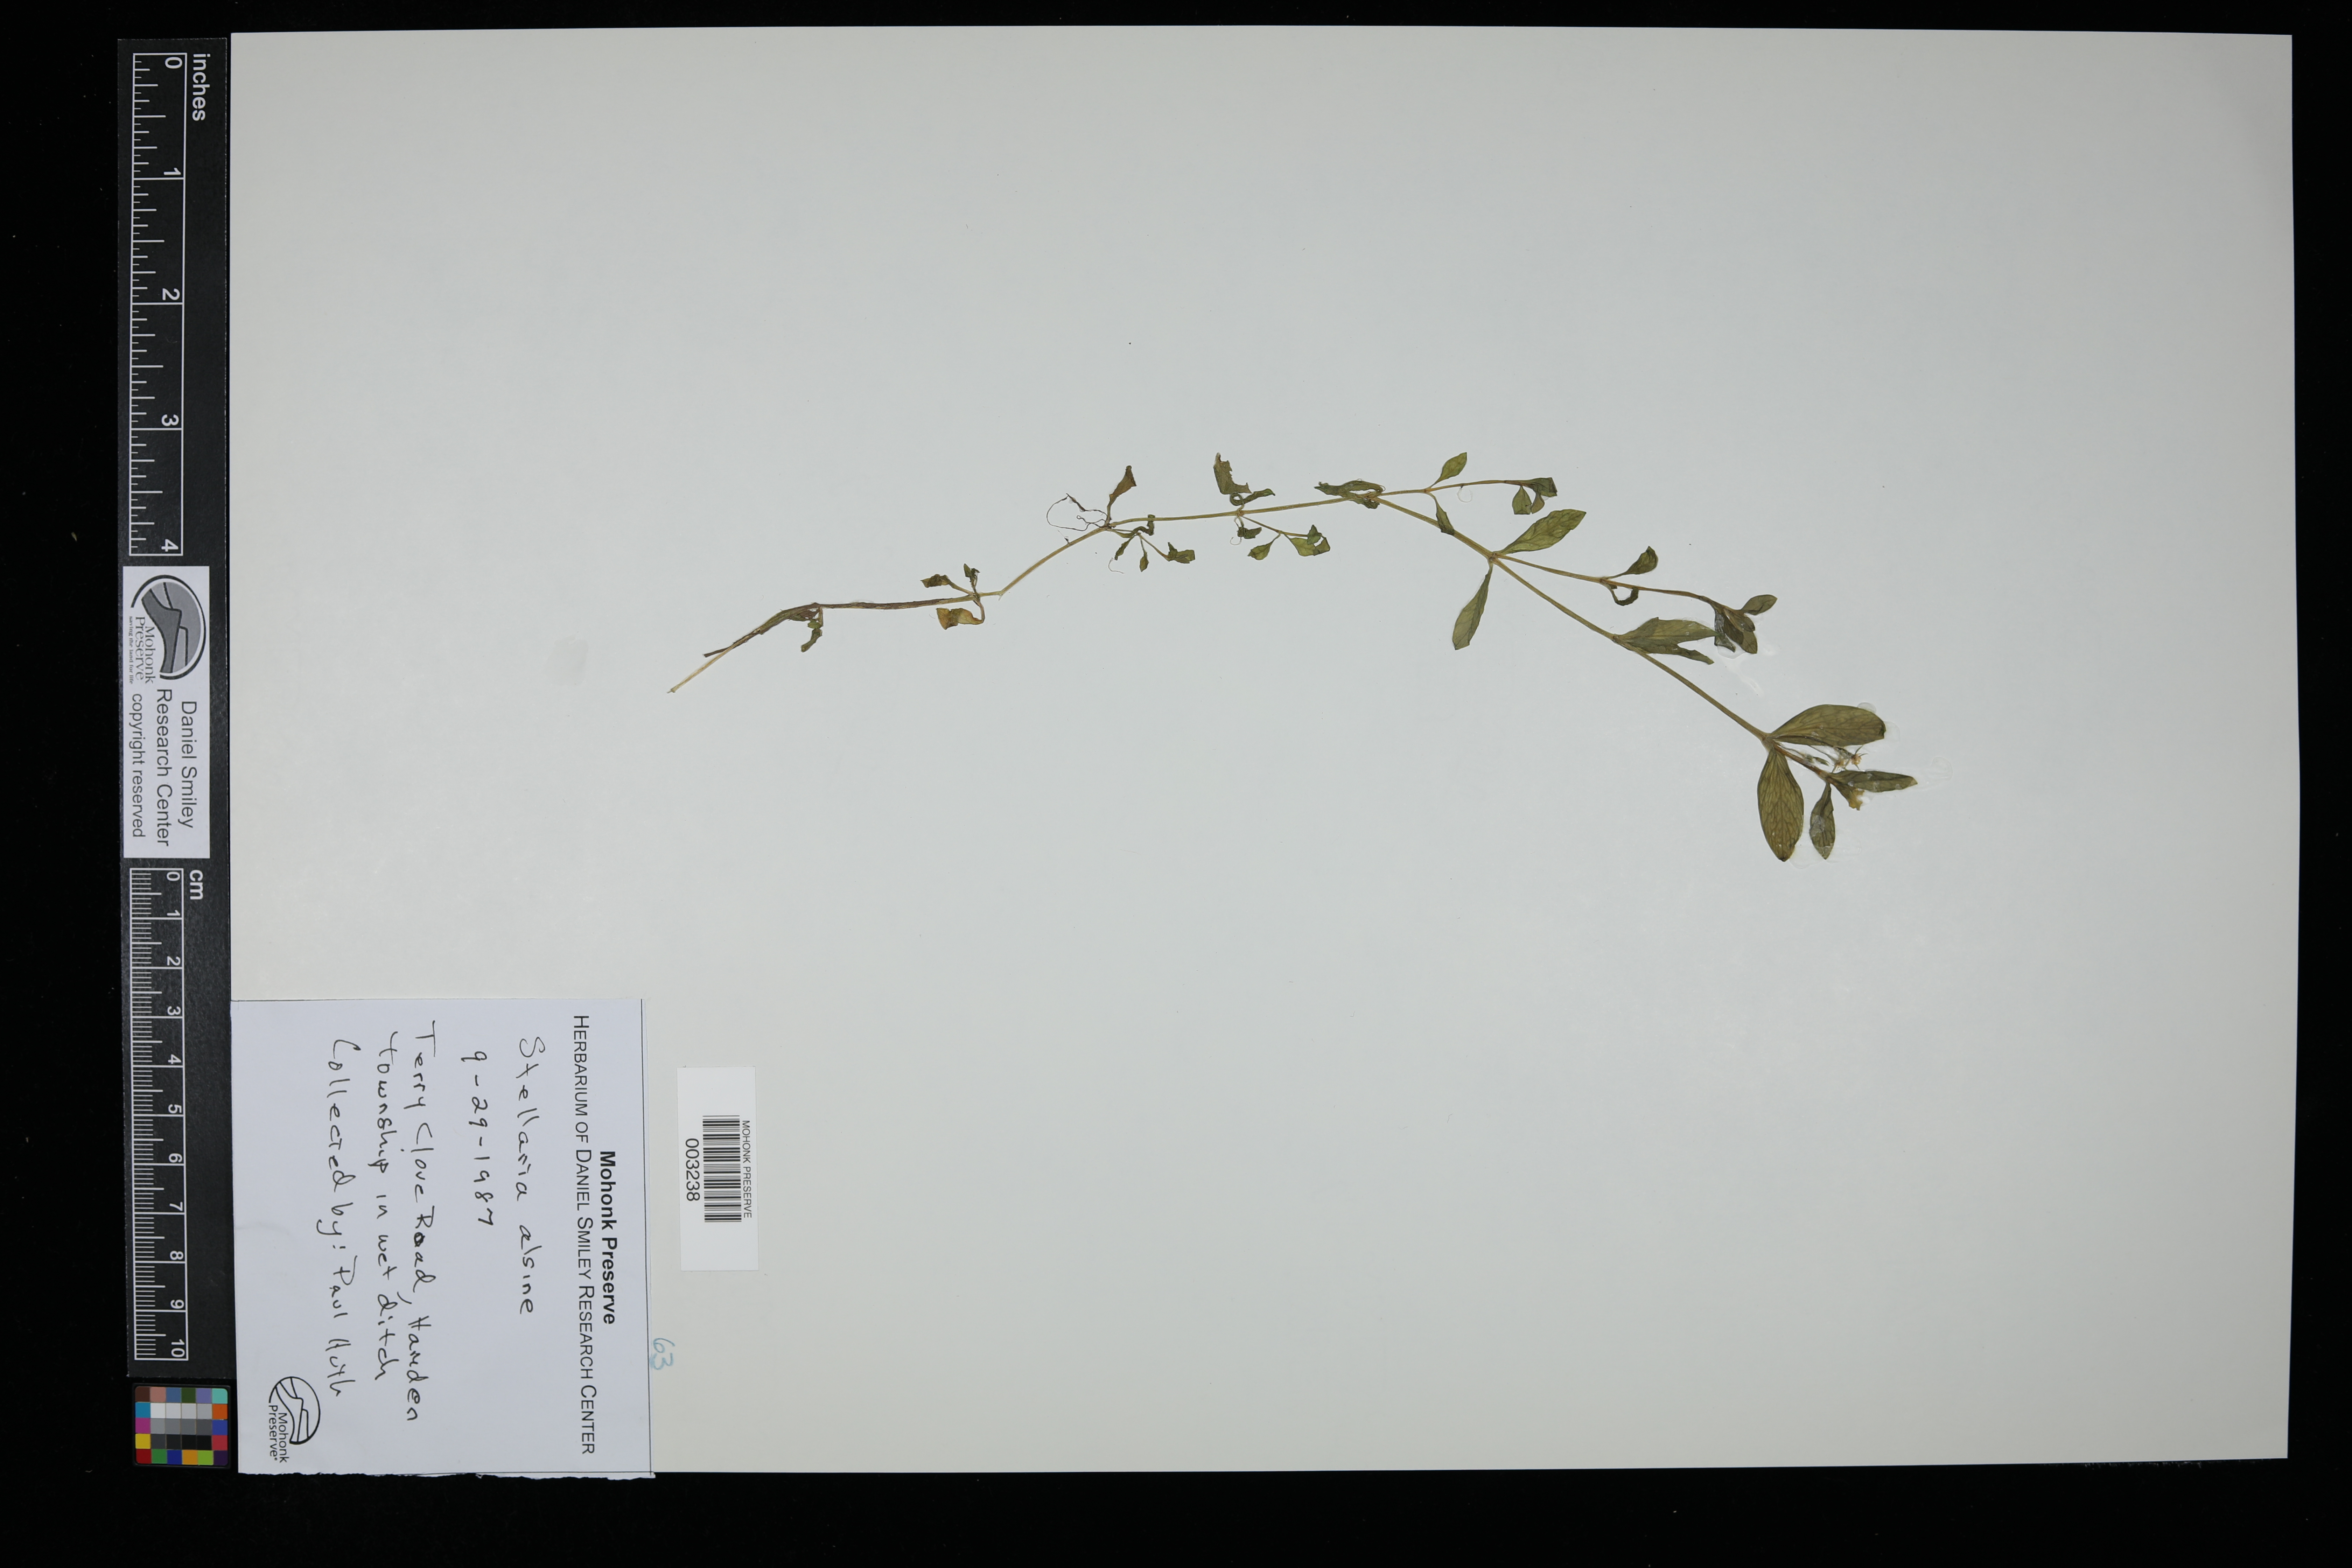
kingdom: Plantae
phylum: Tracheophyta
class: Magnoliopsida
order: Caryophyllales
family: Caryophyllaceae
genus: Stellaria
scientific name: Stellaria alsine
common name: Bog stitchwort
